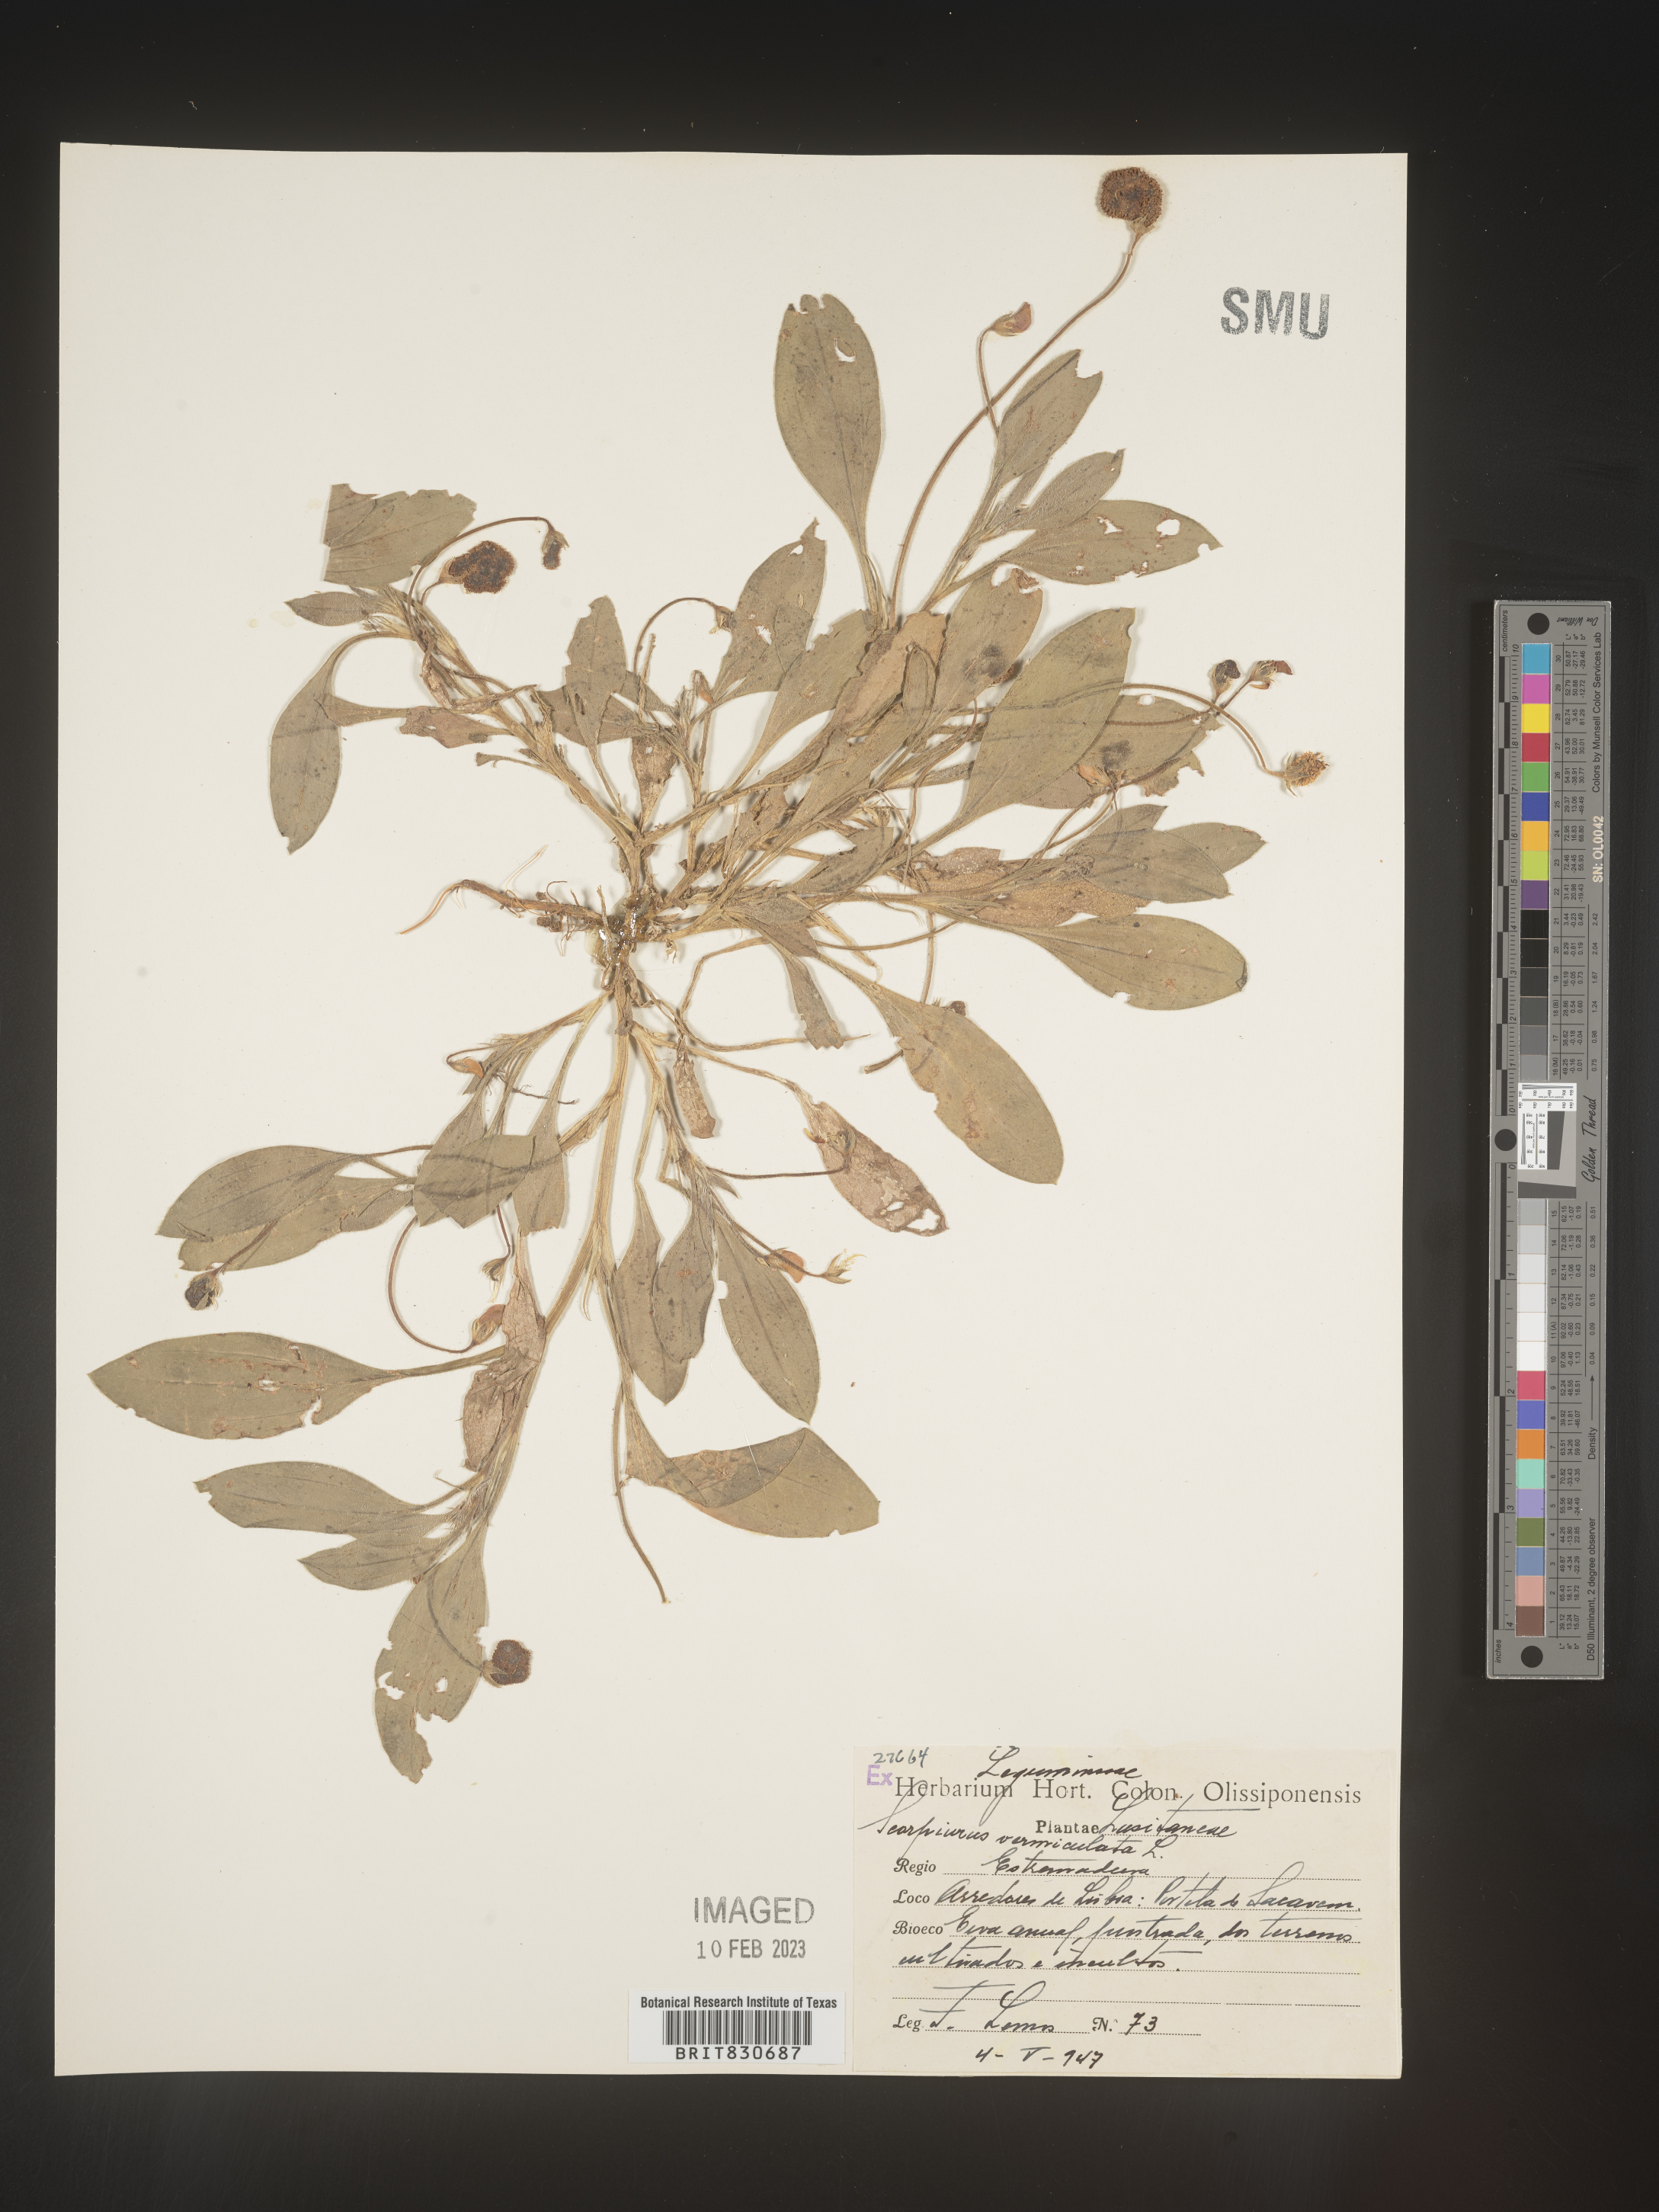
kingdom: Plantae
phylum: Tracheophyta
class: Magnoliopsida
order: Fabales
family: Fabaceae
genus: Scorpiurus
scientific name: Scorpiurus
